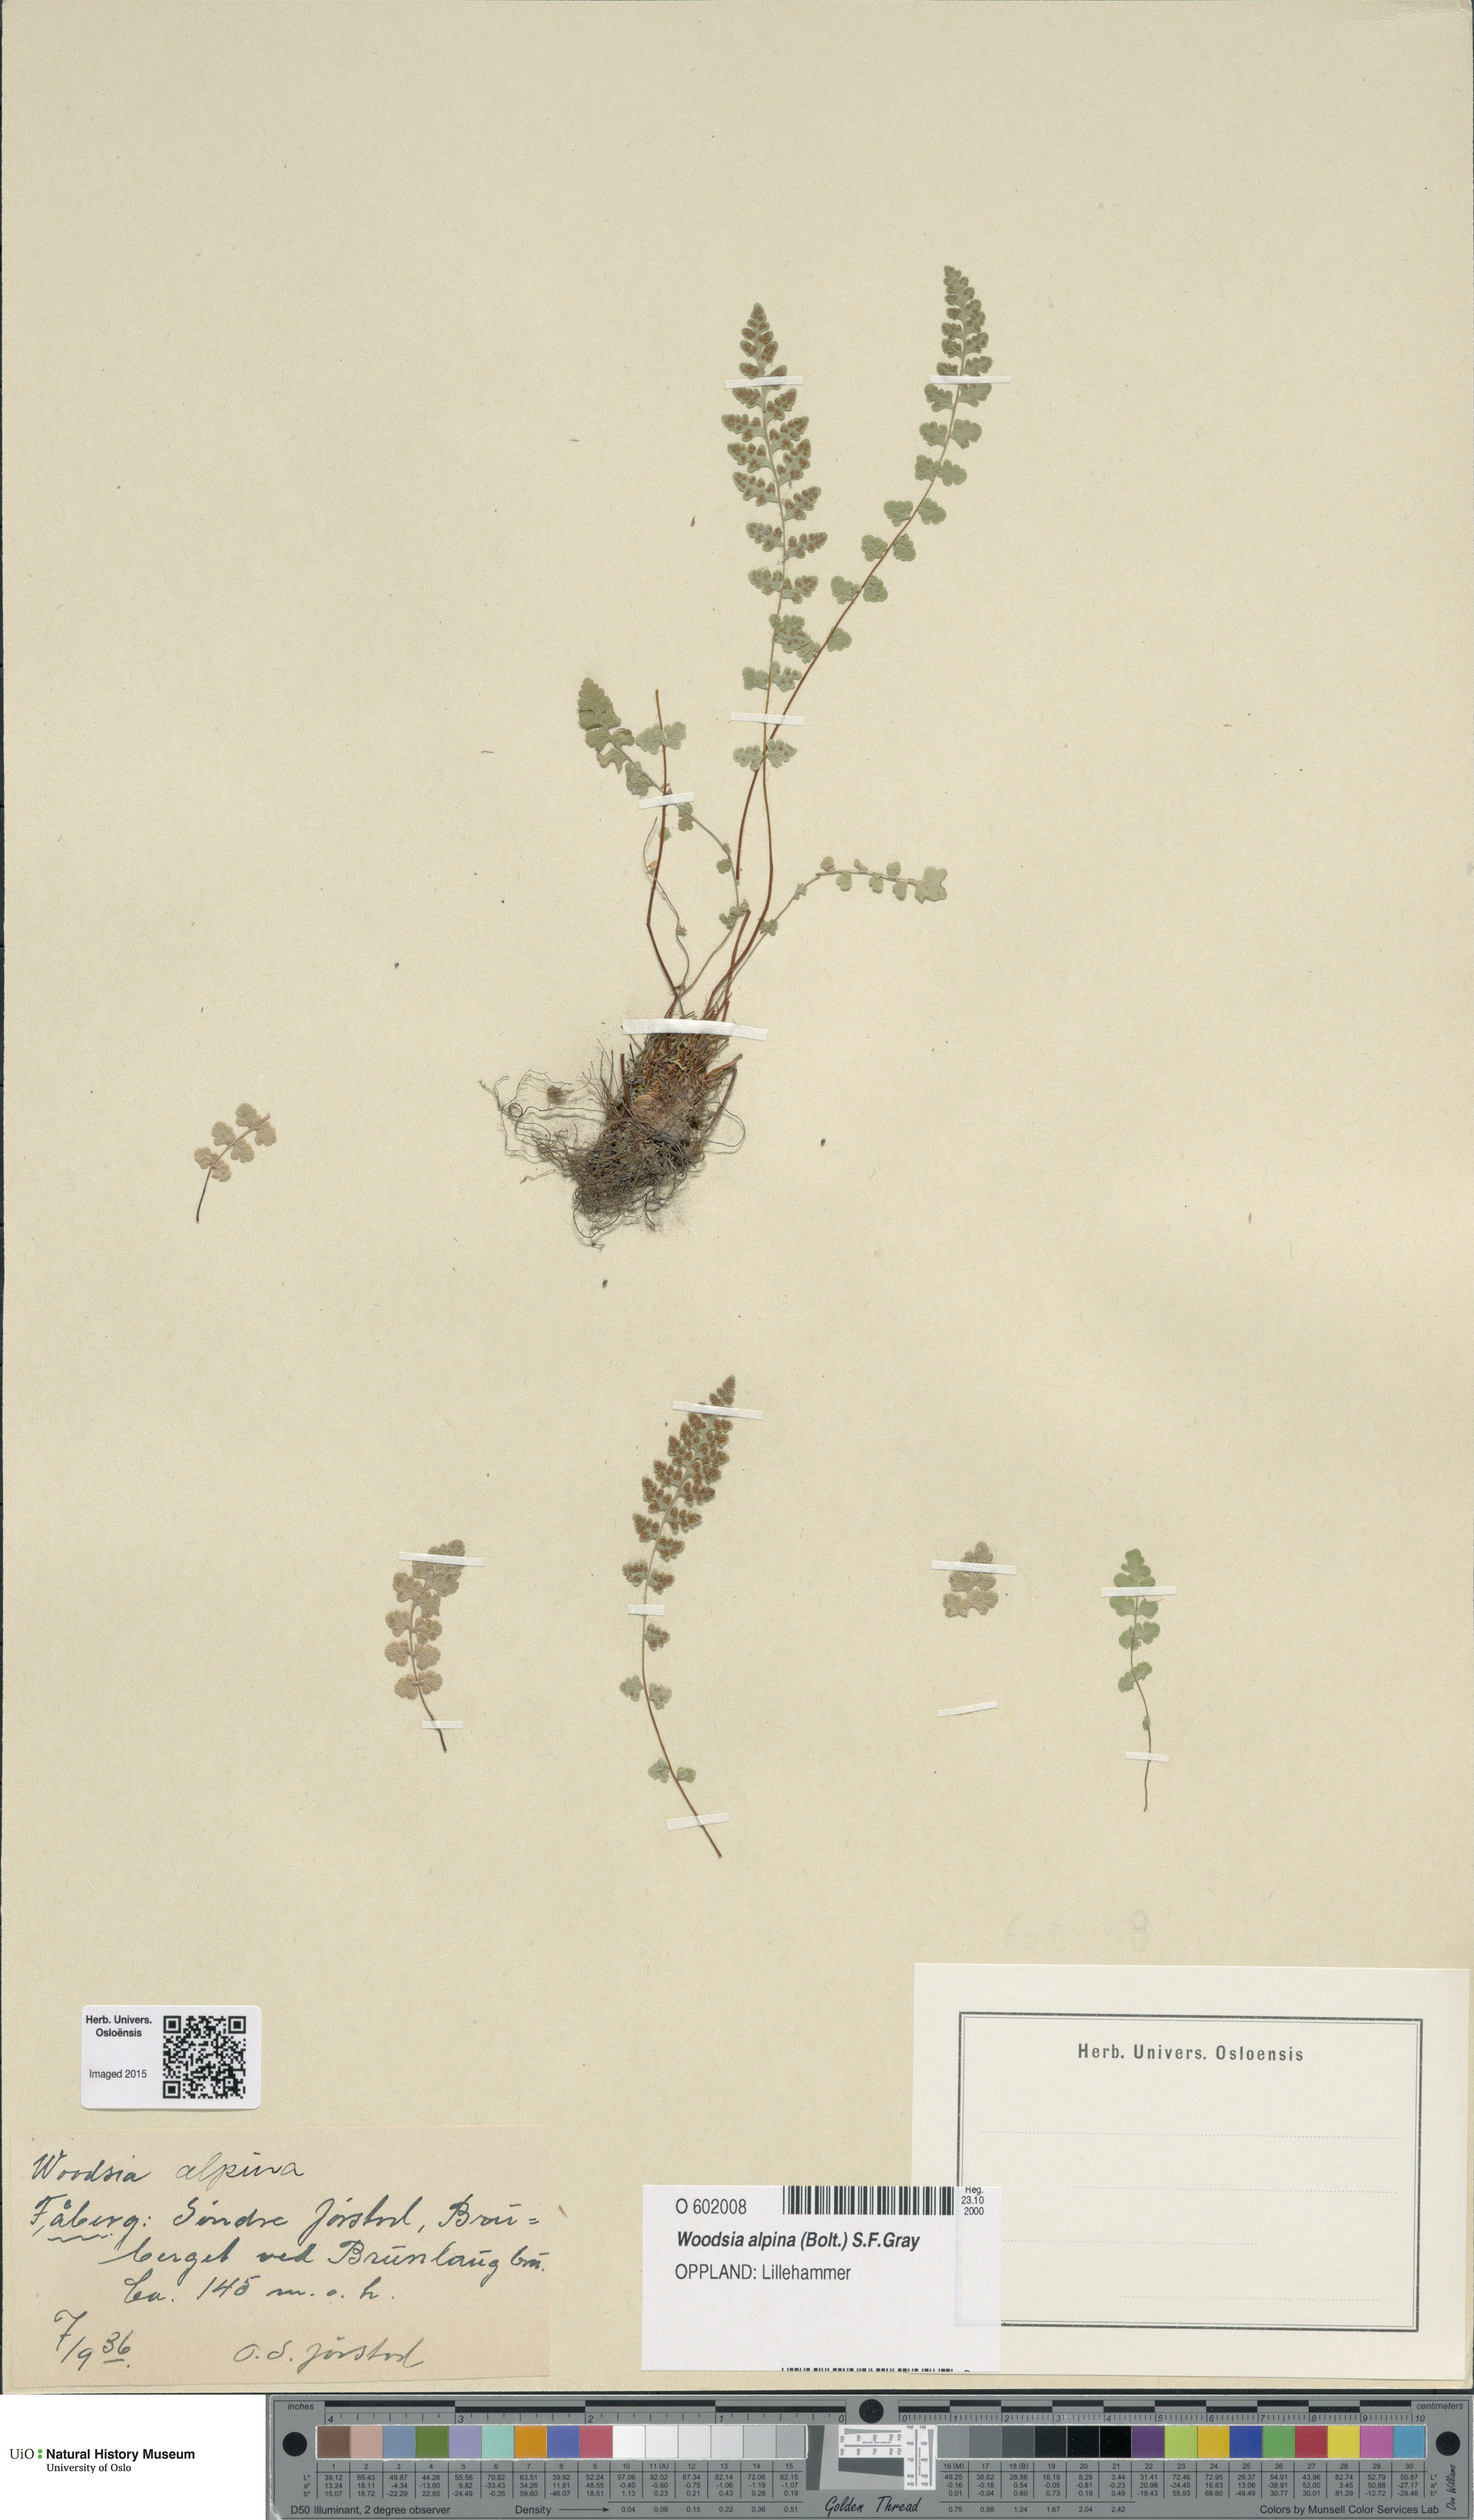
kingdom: Plantae
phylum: Tracheophyta
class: Polypodiopsida
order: Polypodiales
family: Woodsiaceae
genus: Woodsia
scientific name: Woodsia alpina
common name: Alpine woodsia
